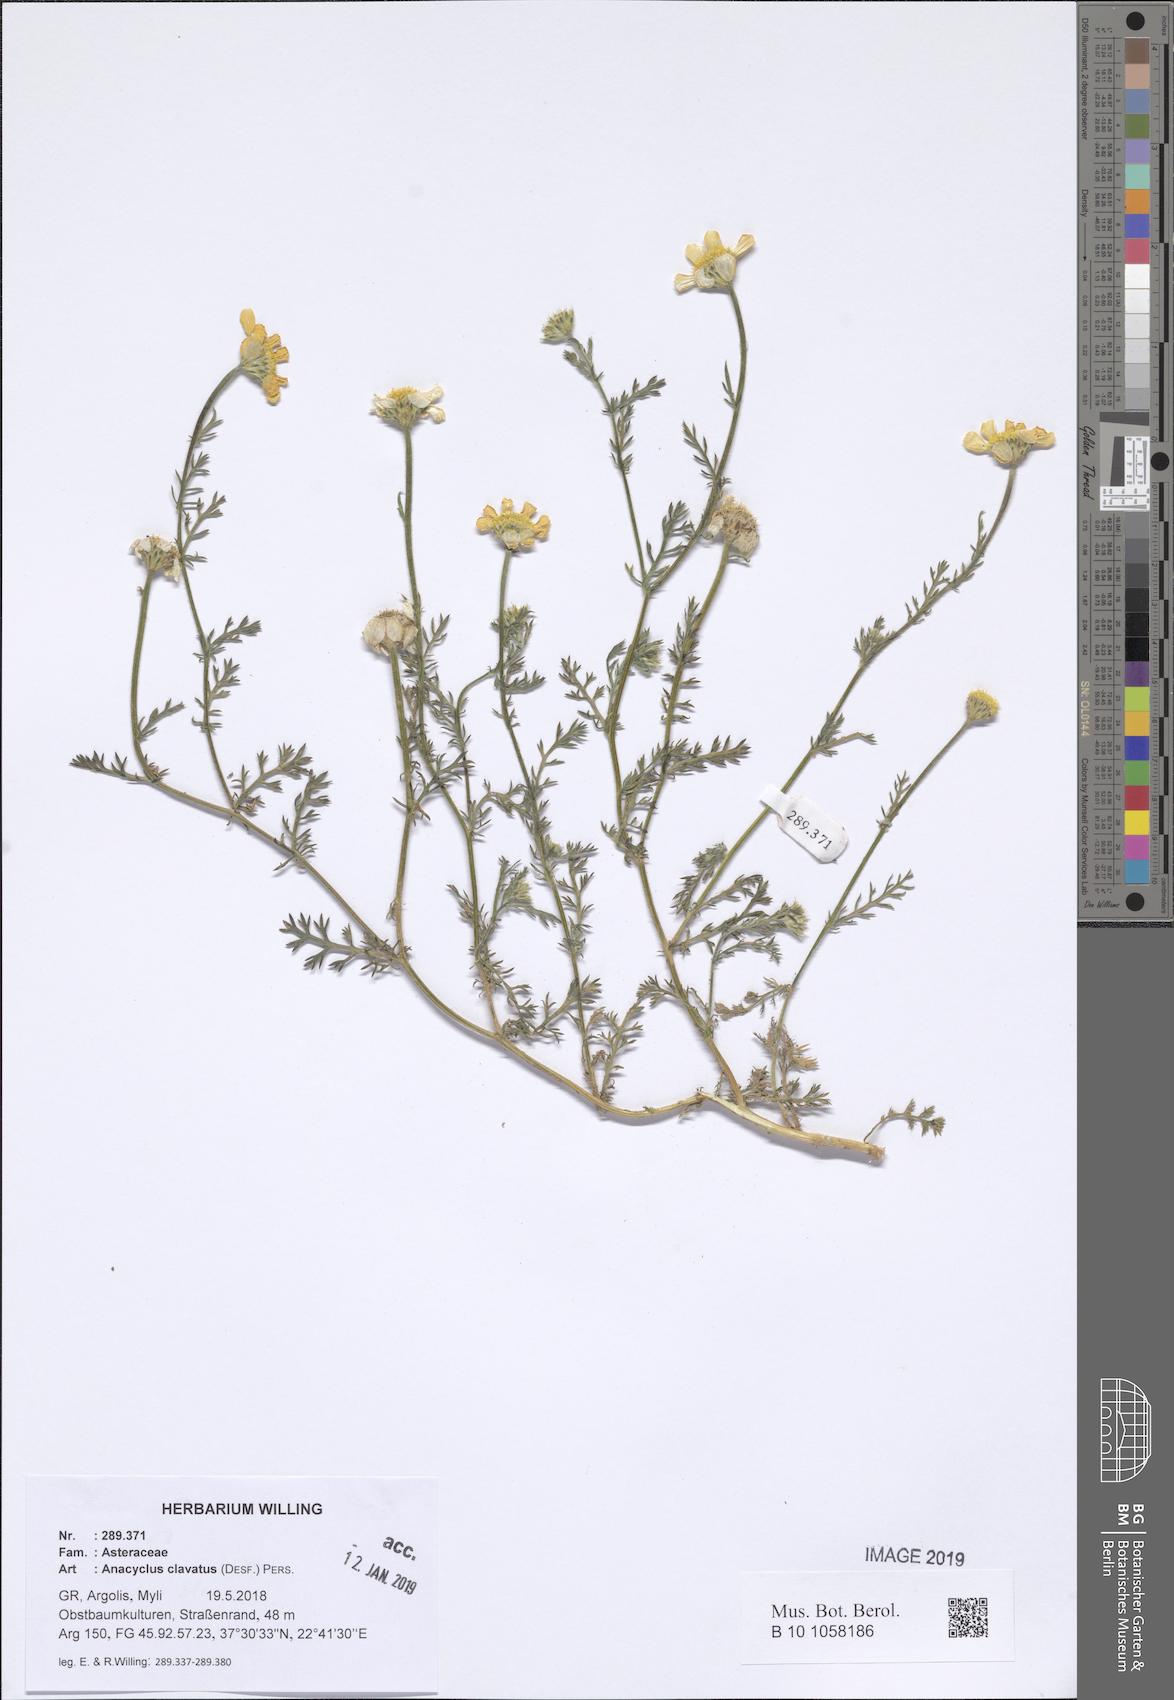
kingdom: Plantae
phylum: Tracheophyta
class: Magnoliopsida
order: Asterales
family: Asteraceae
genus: Anacyclus
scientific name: Anacyclus clavatus
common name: Whitebuttons
